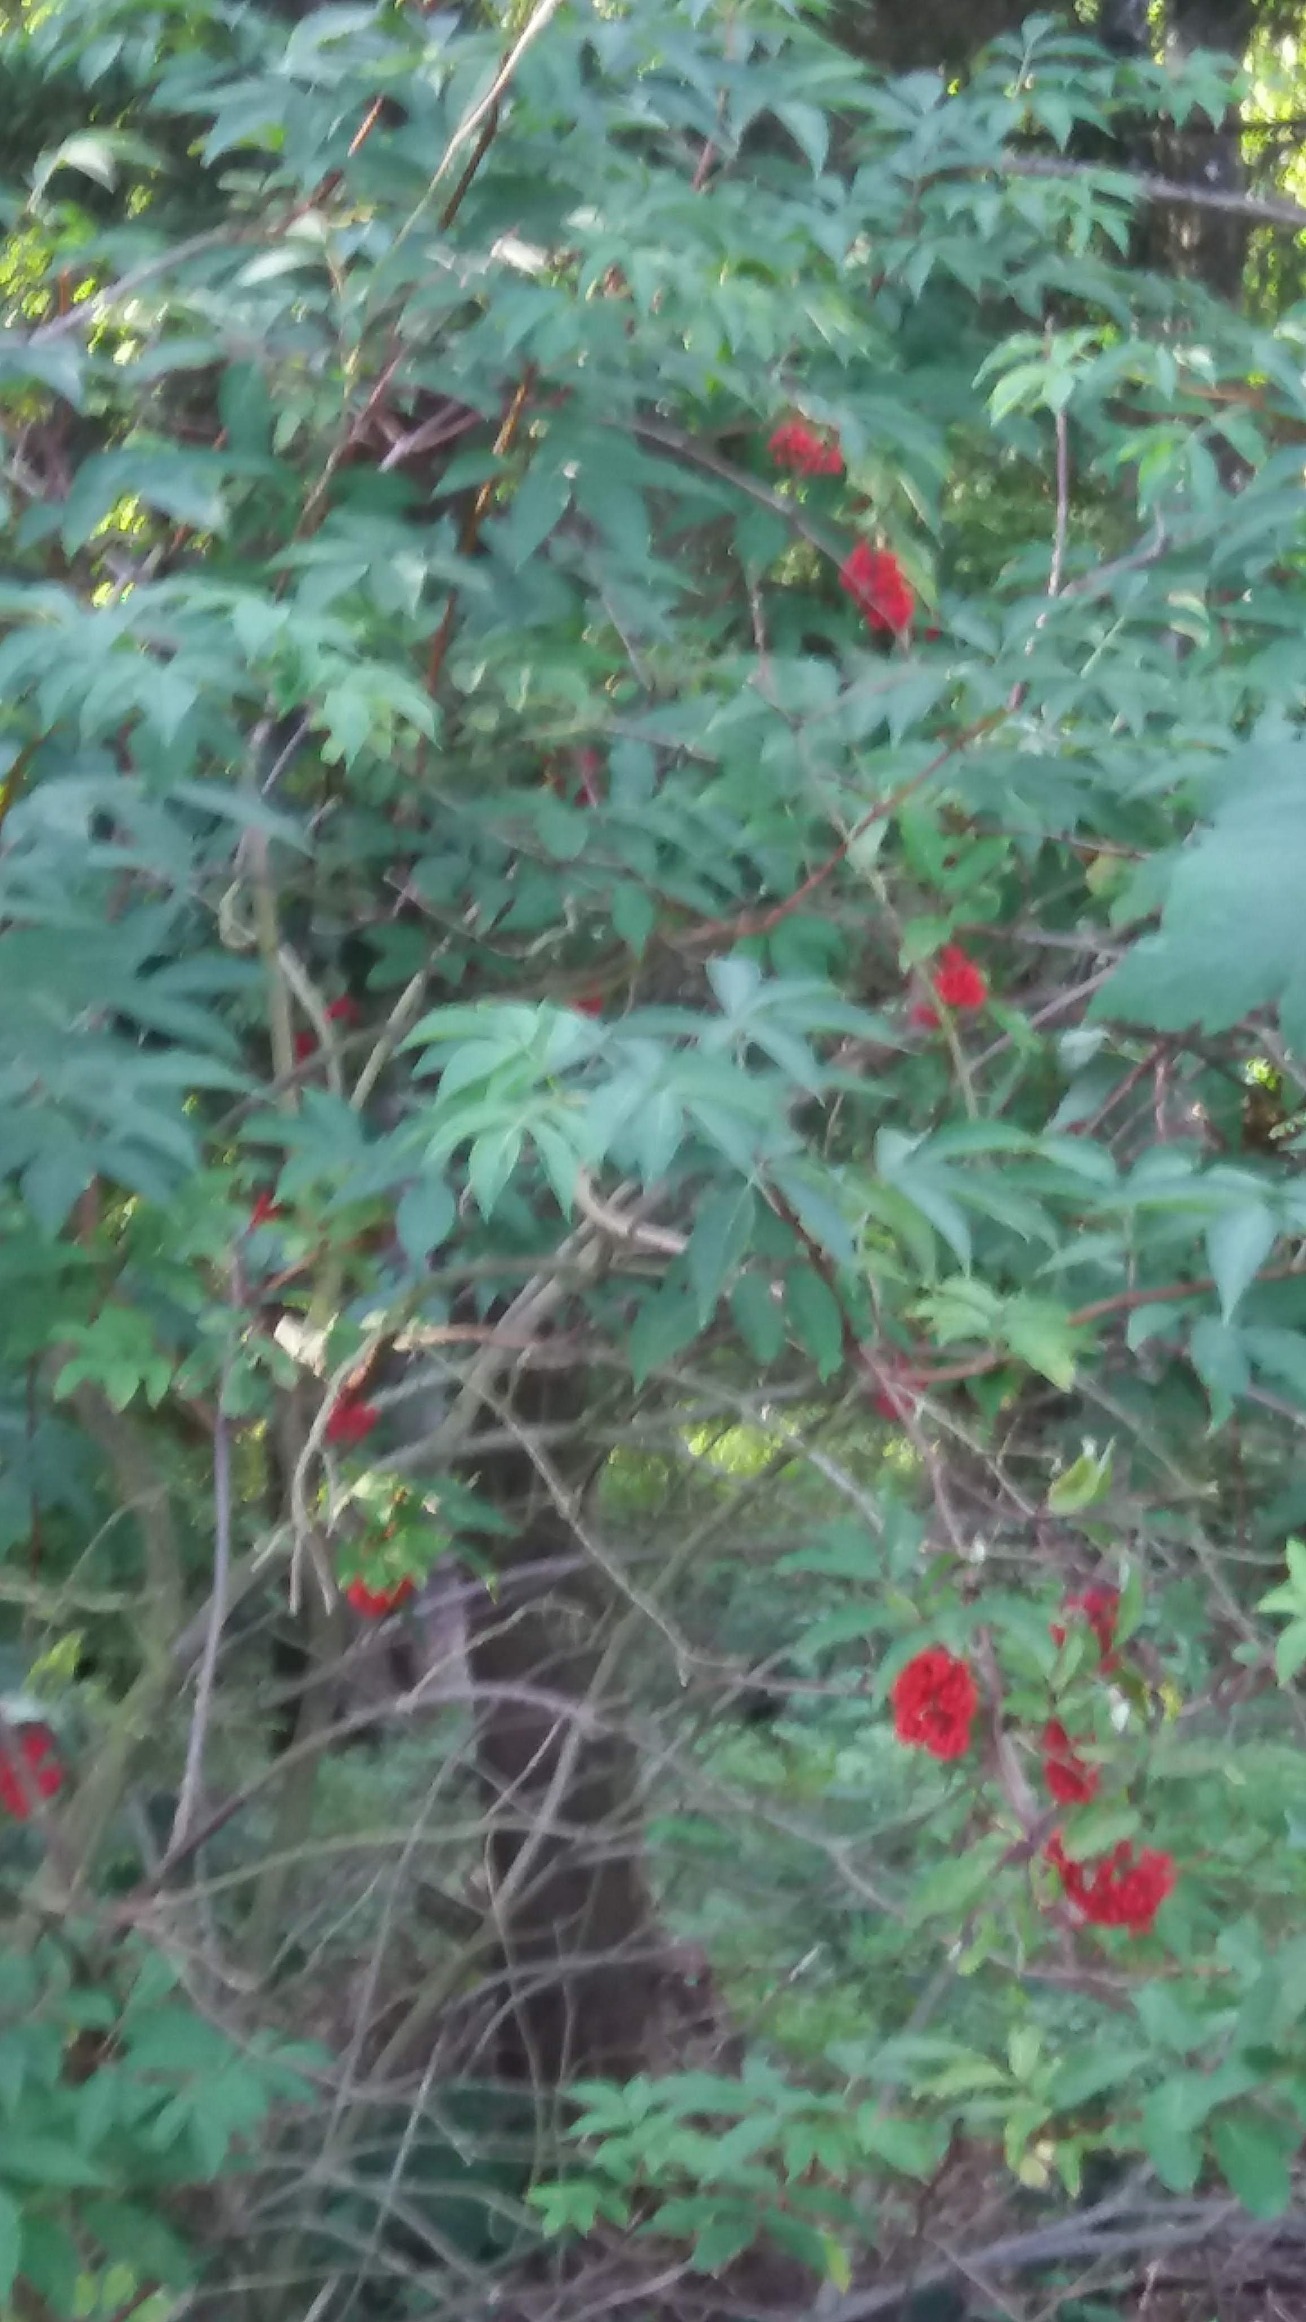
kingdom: Plantae
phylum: Tracheophyta
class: Magnoliopsida
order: Dipsacales
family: Viburnaceae
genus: Sambucus
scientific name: Sambucus racemosa
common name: Drue-hyld
